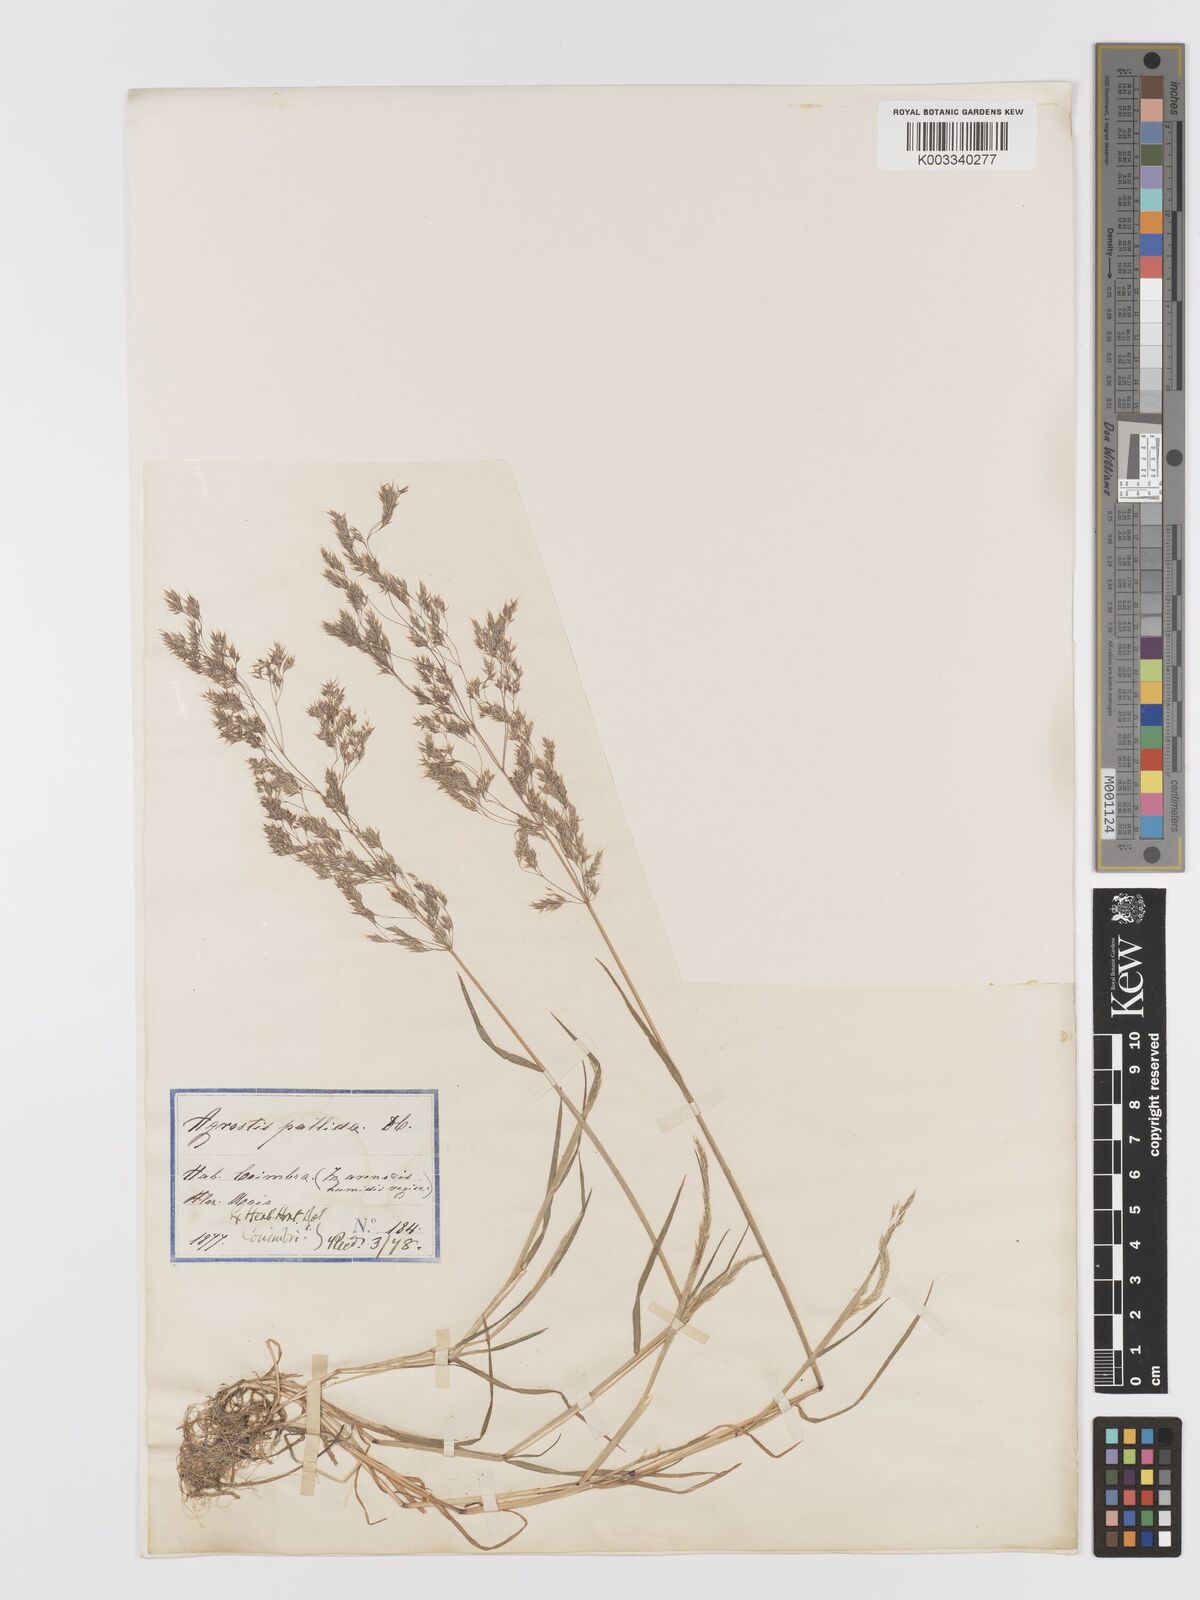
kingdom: Plantae
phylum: Tracheophyta
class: Liliopsida
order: Poales
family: Poaceae
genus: Agrostis
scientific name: Agrostis pourretii
